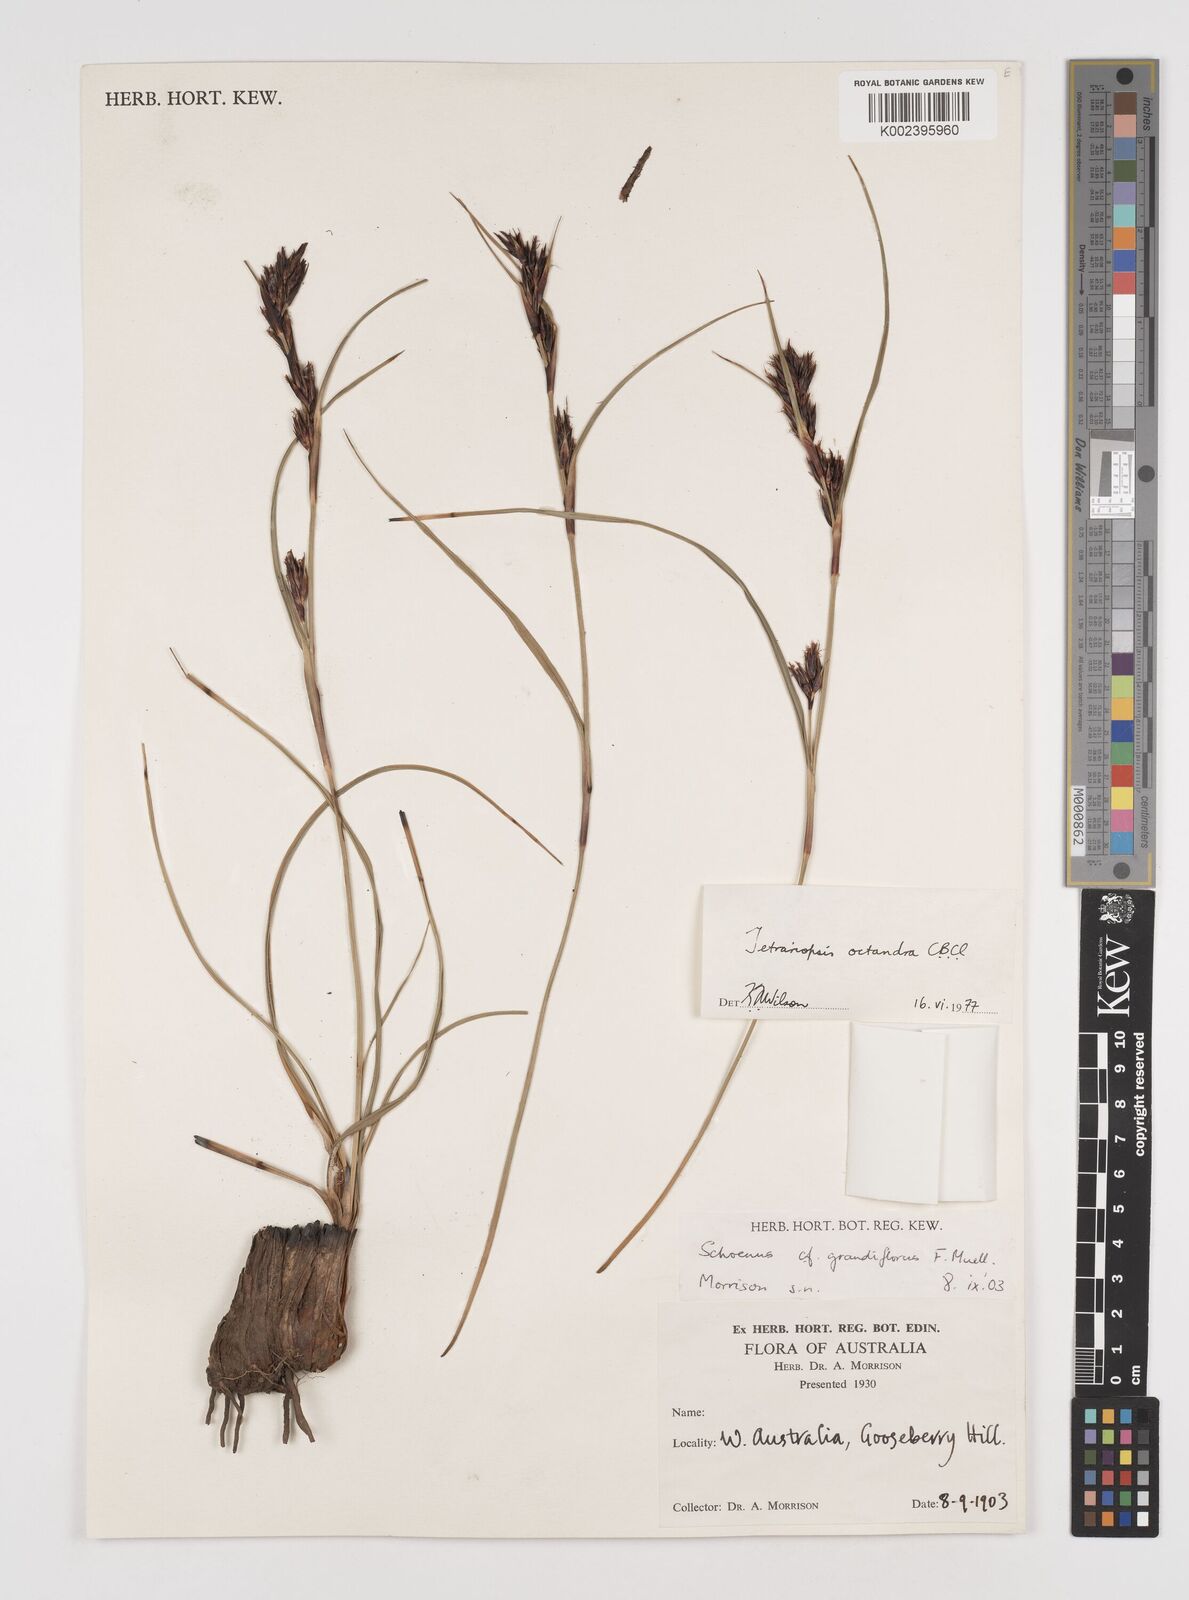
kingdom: Plantae
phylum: Tracheophyta
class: Liliopsida
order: Poales
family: Cyperaceae
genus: Tetraria
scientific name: Tetraria octandra
